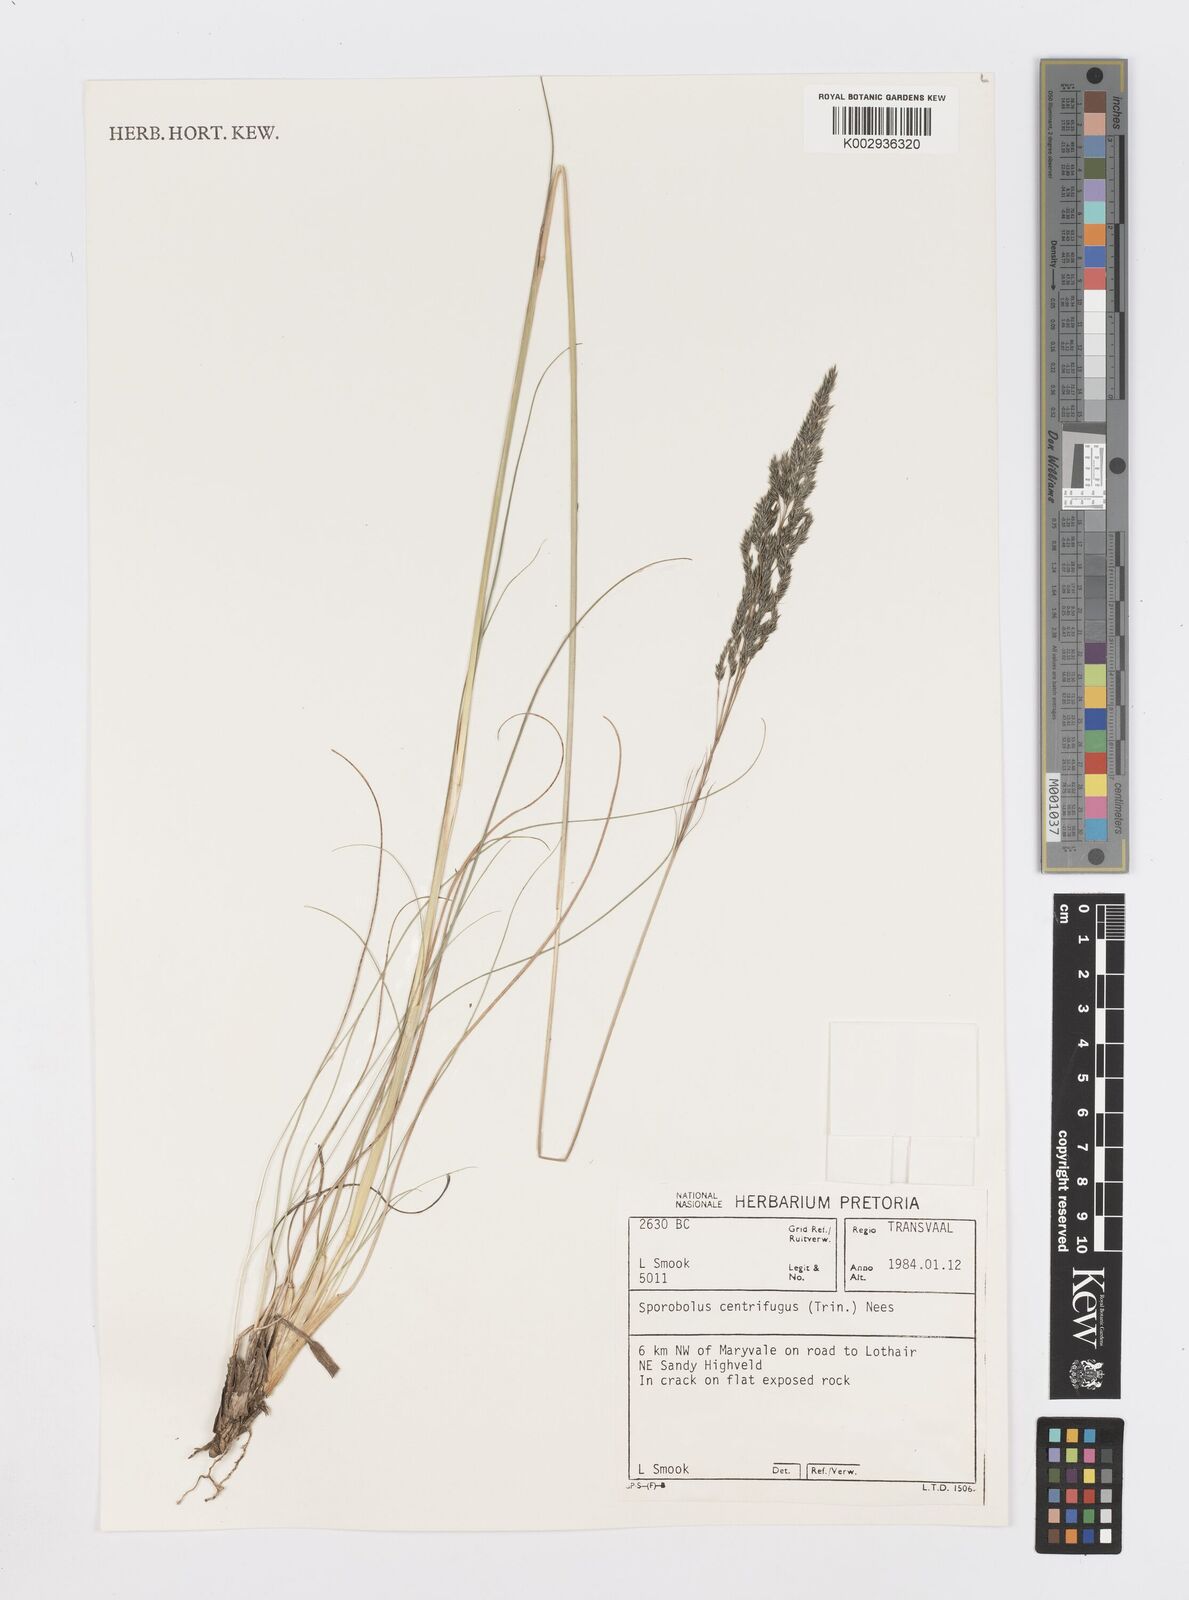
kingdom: Plantae
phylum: Tracheophyta
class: Liliopsida
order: Poales
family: Poaceae
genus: Sporobolus
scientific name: Sporobolus centrifugus
